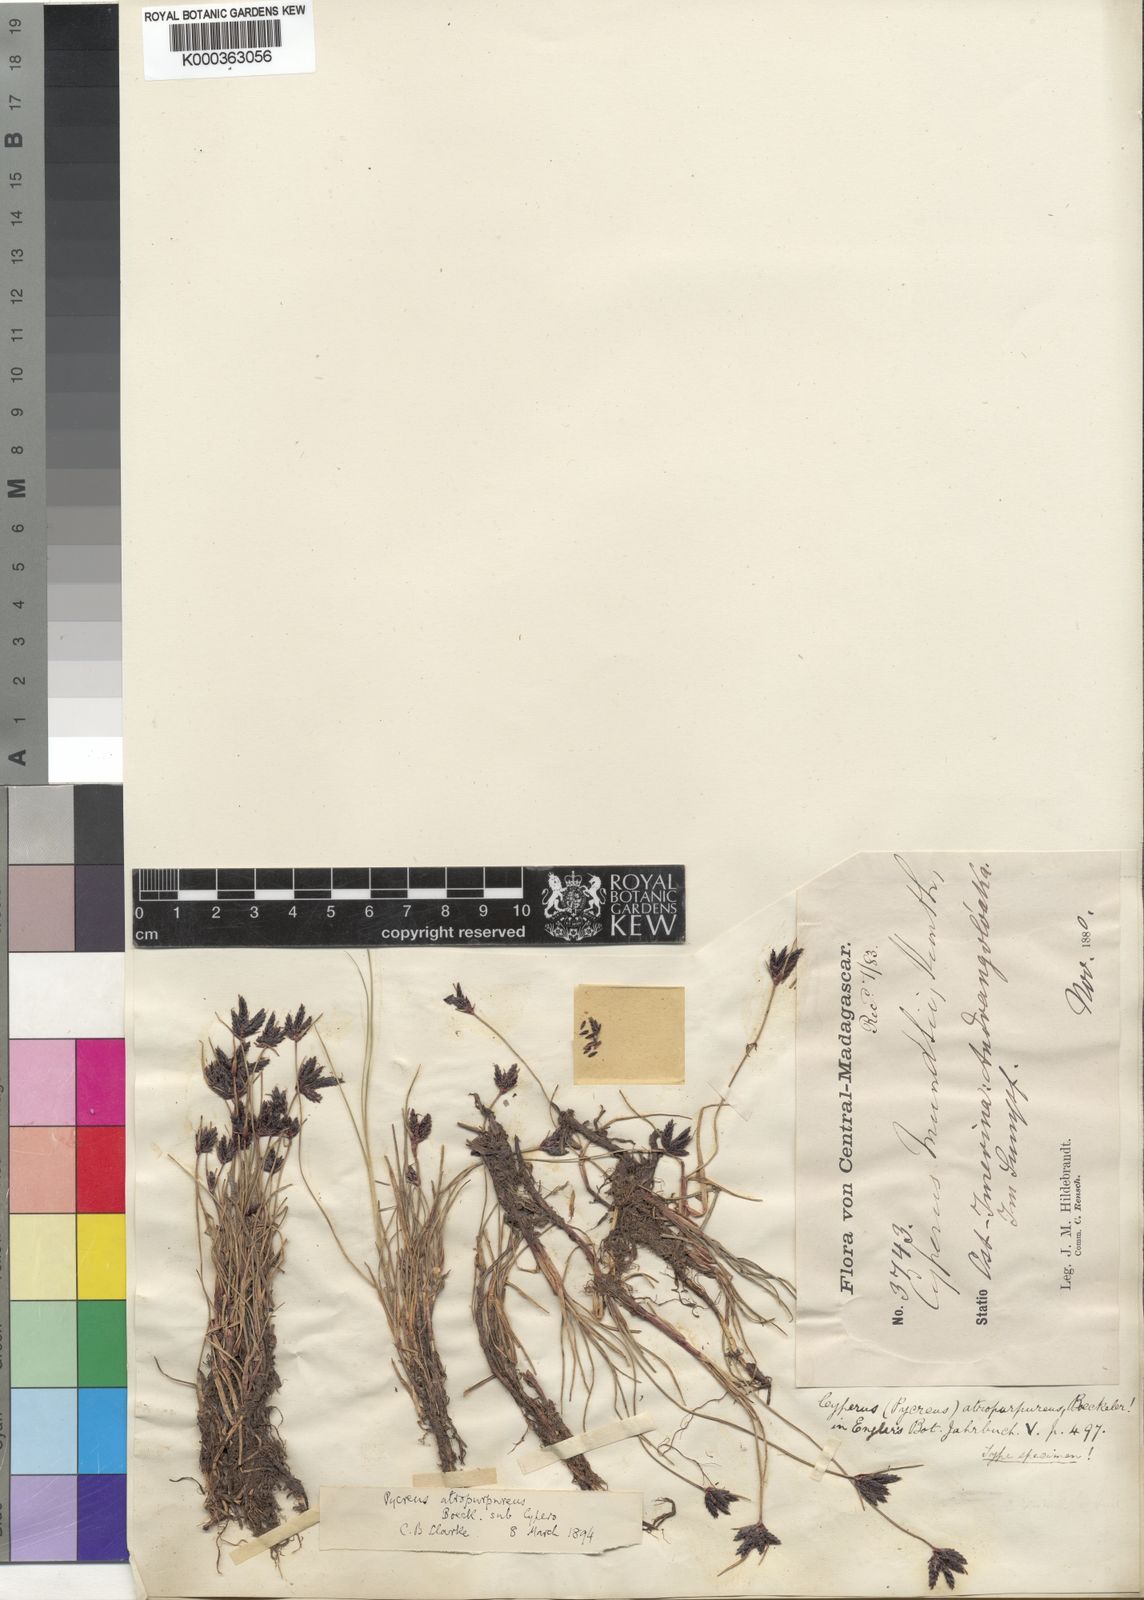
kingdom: Plantae
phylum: Tracheophyta
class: Liliopsida
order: Poales
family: Cyperaceae
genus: Cyperus
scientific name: Cyperus
